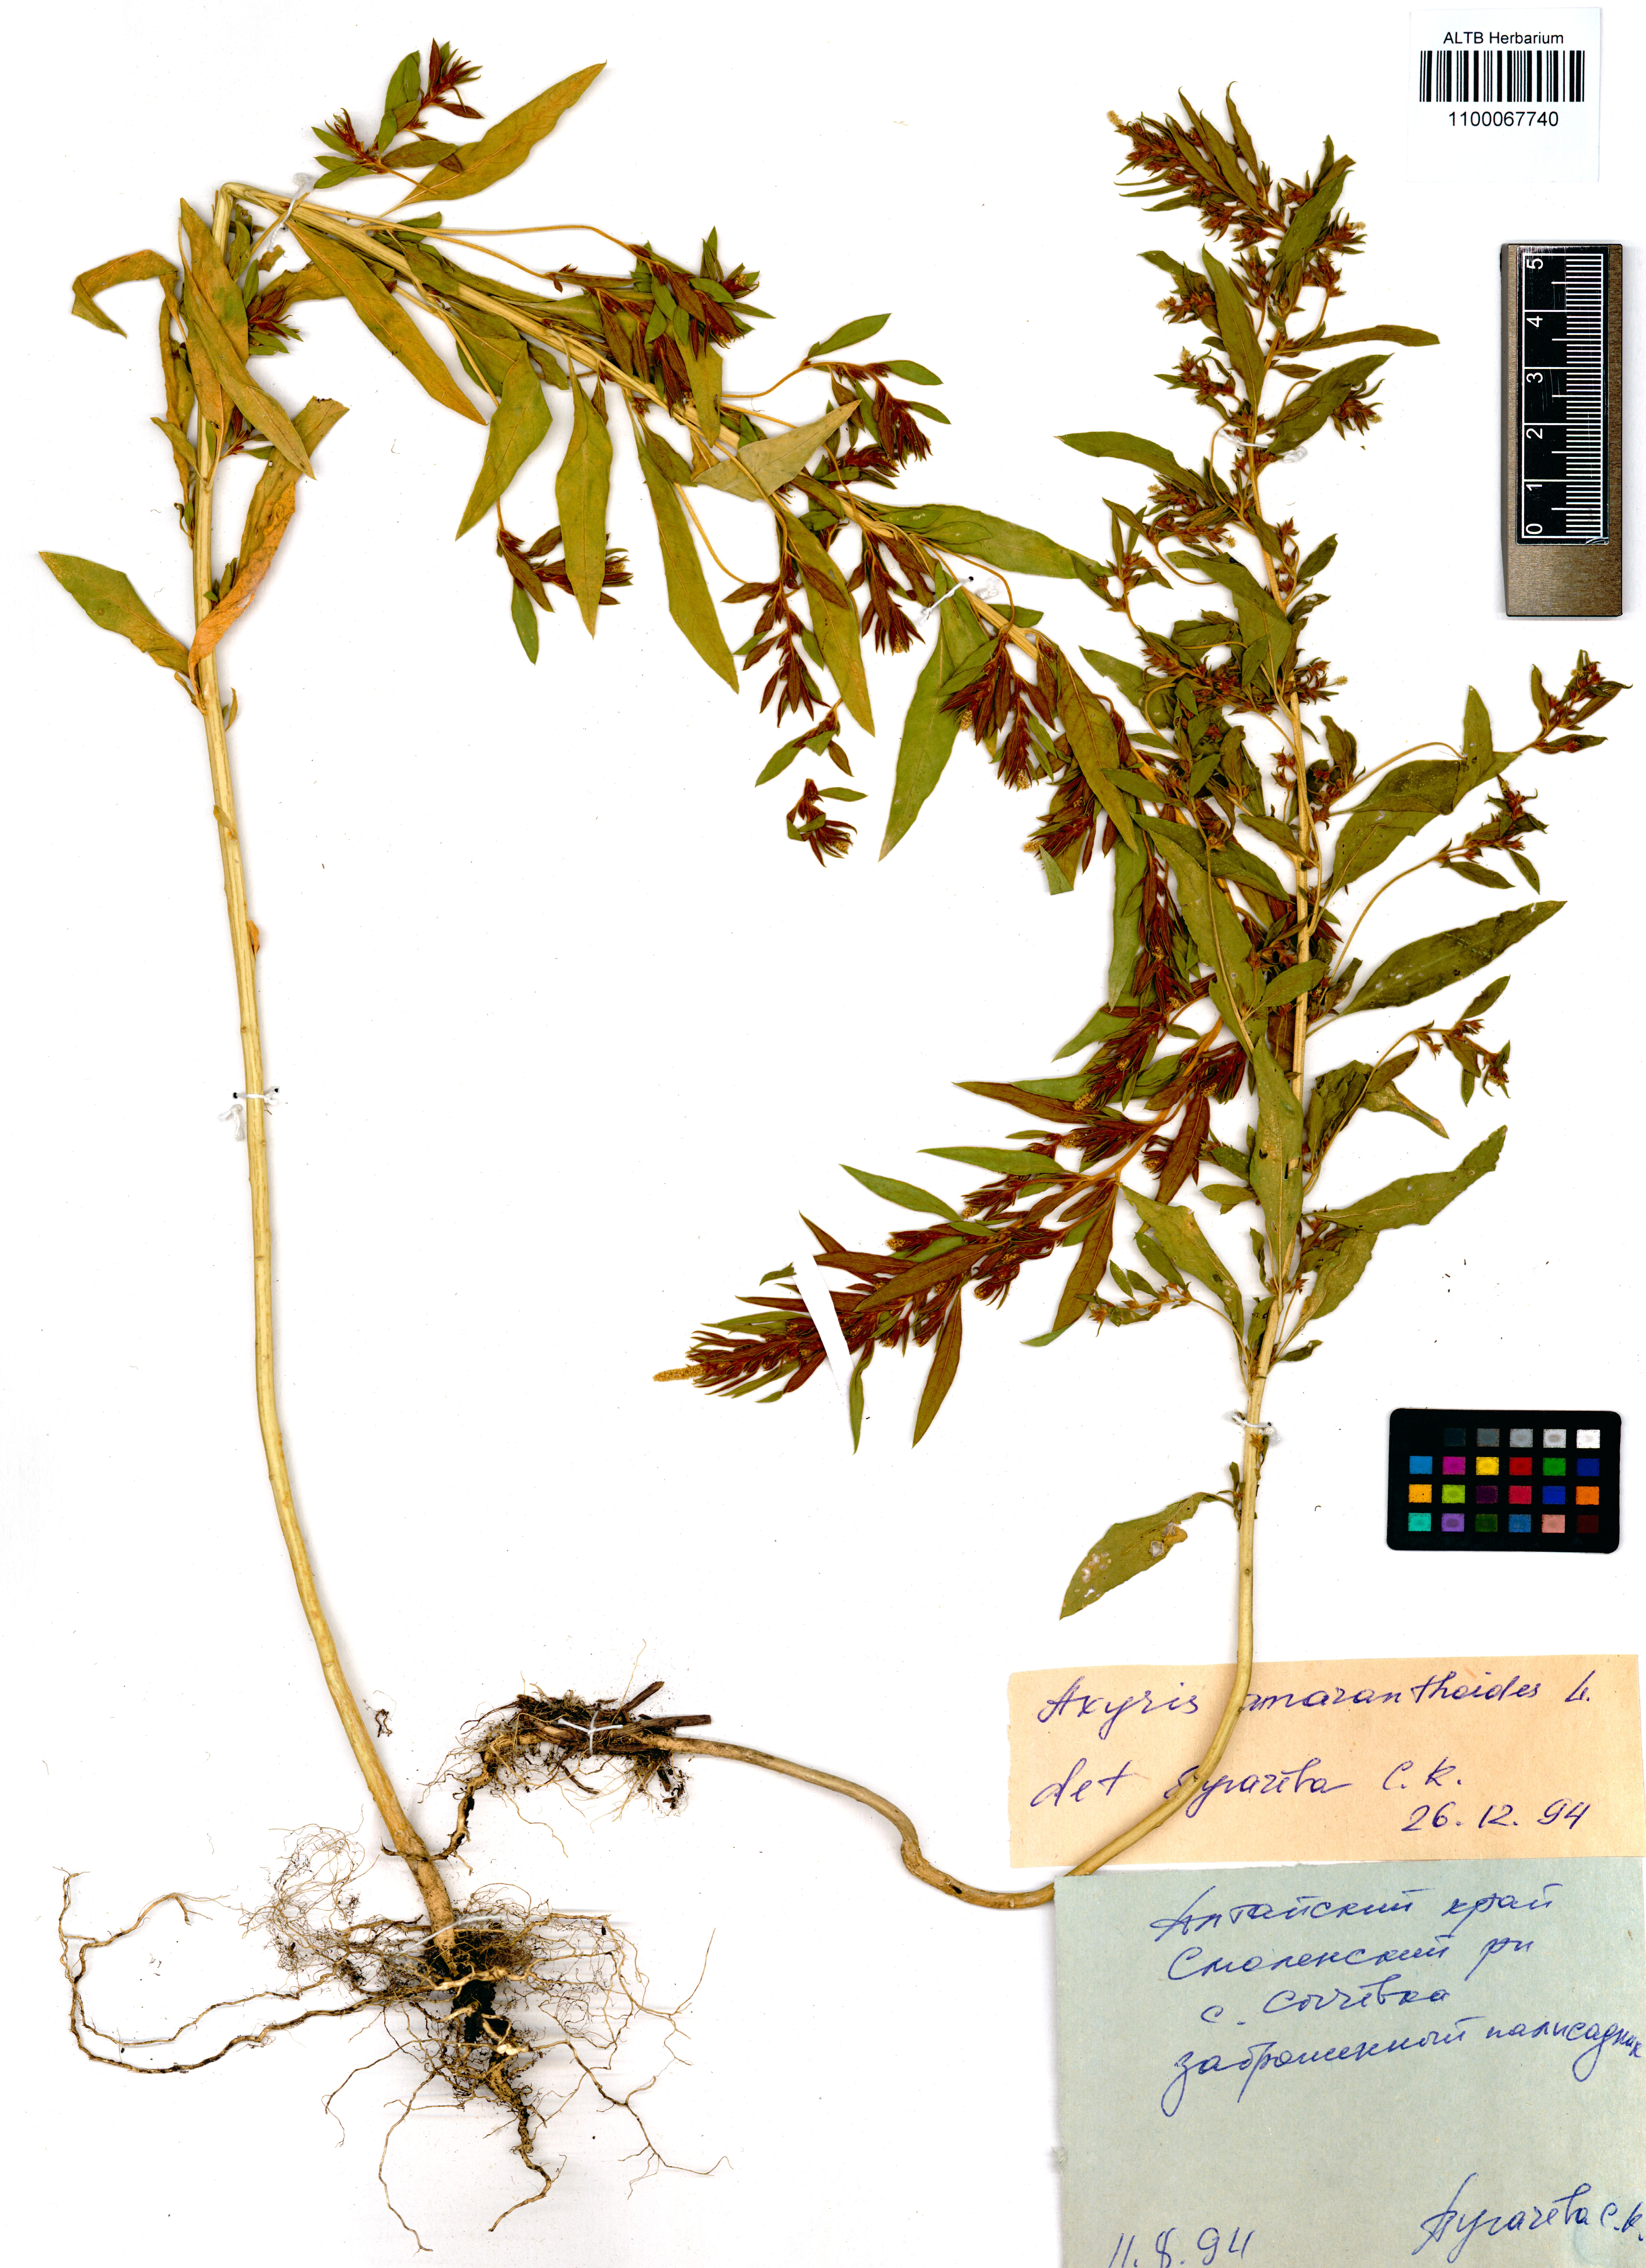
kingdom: Plantae
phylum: Tracheophyta
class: Magnoliopsida
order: Caryophyllales
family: Amaranthaceae
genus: Axyris
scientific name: Axyris amaranthoides
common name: Russian pigweed
